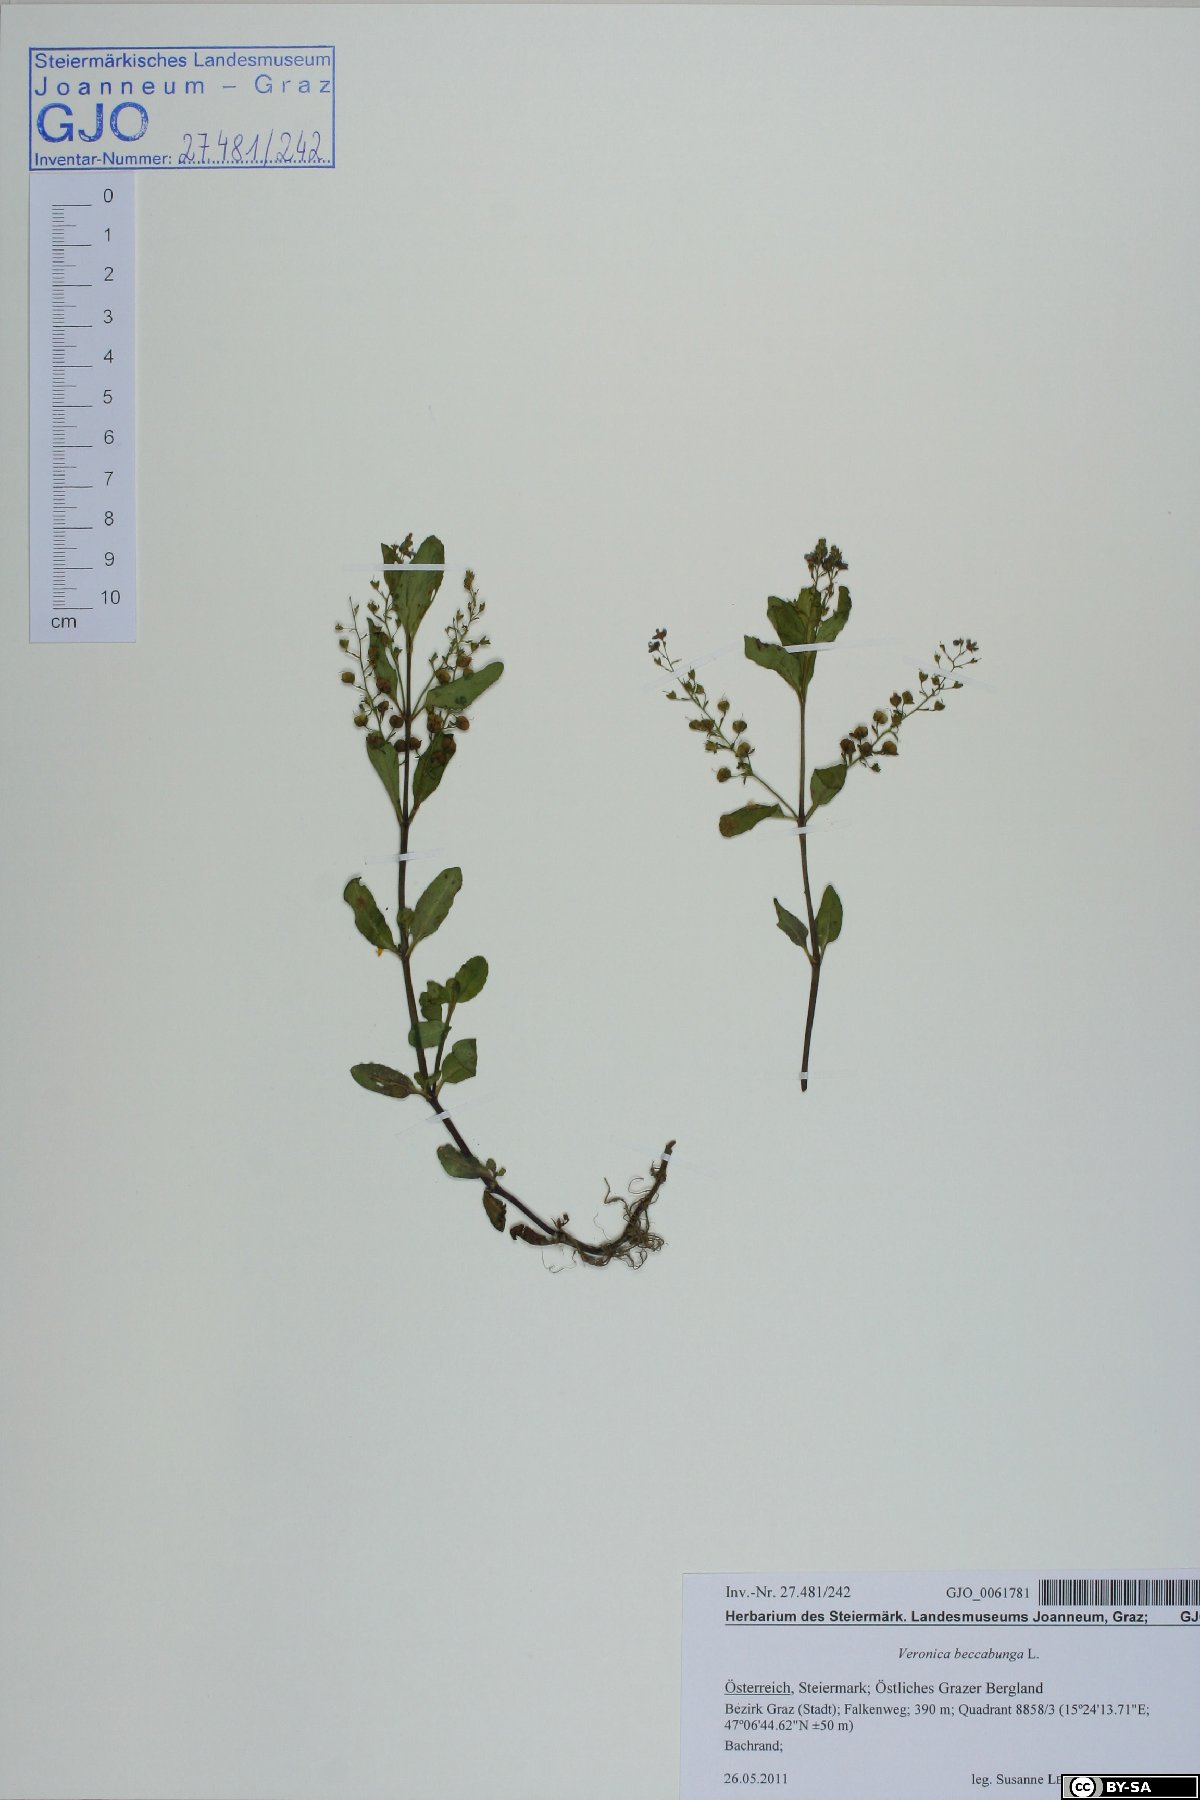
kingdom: Plantae
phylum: Tracheophyta
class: Magnoliopsida
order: Lamiales
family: Plantaginaceae
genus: Veronica
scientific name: Veronica beccabunga
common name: Brooklime
